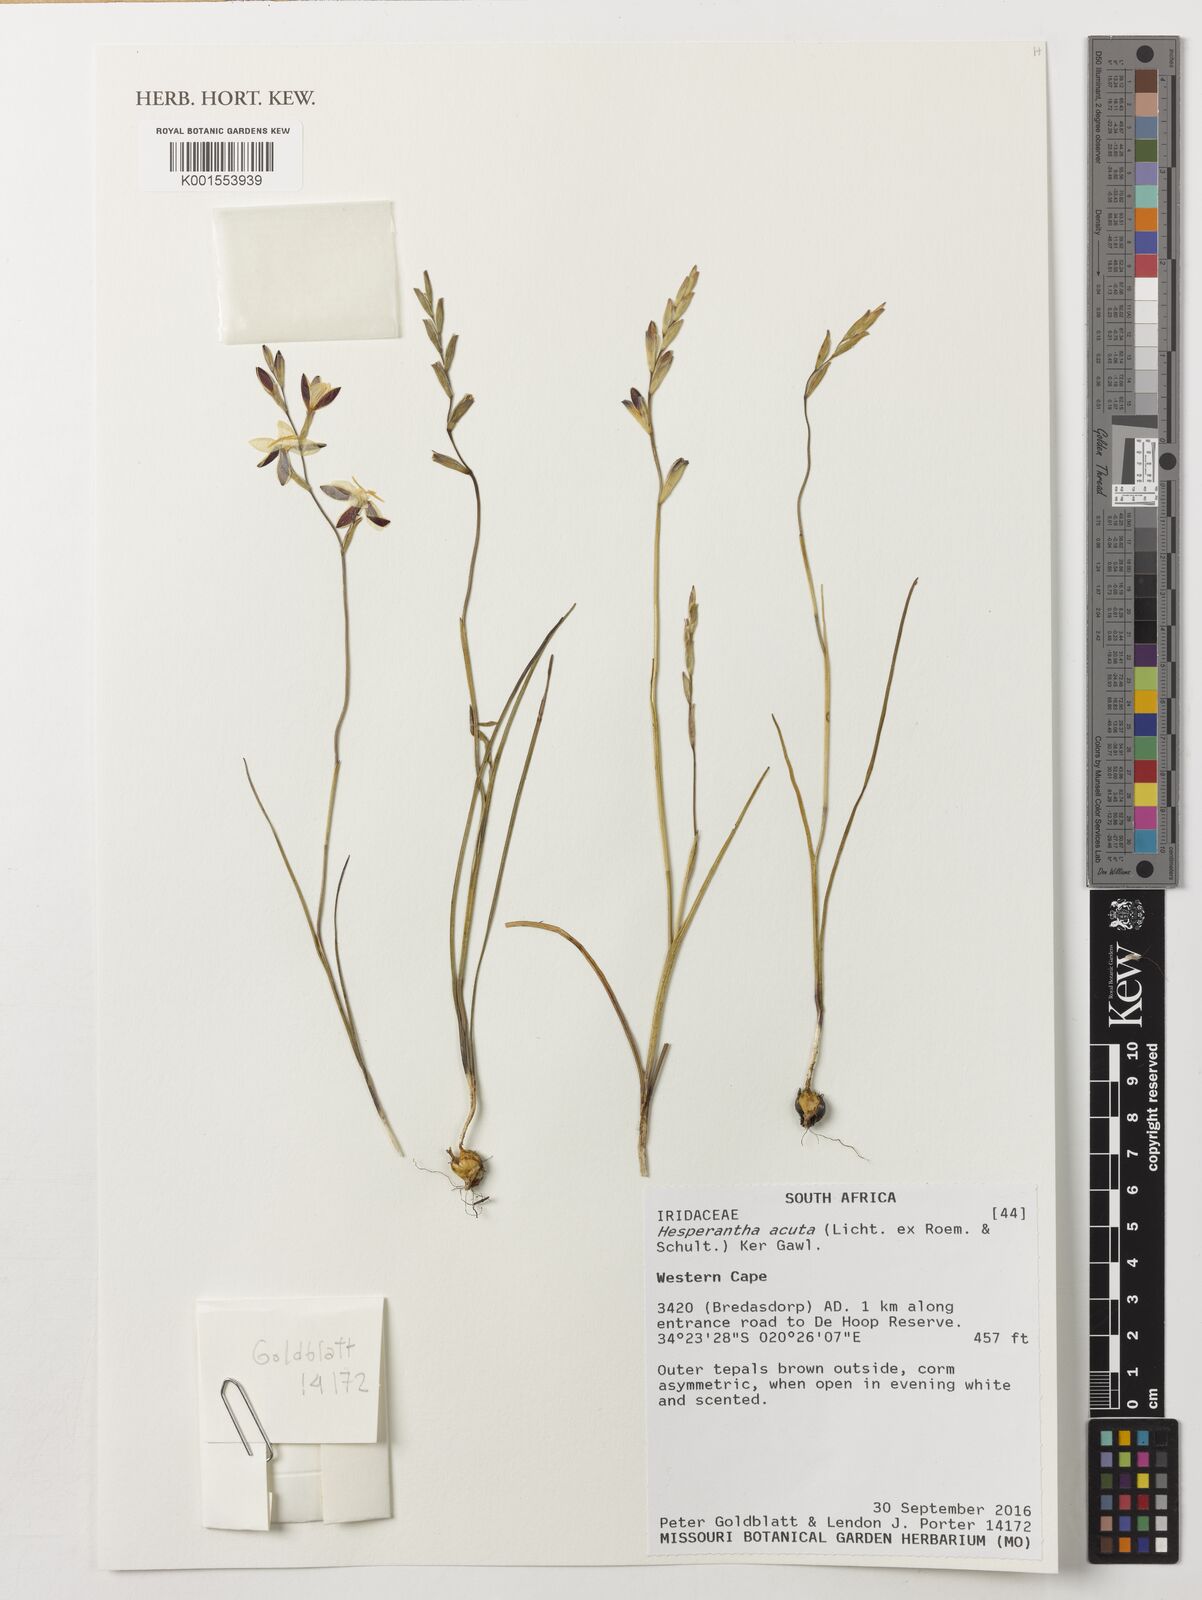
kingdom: Plantae
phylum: Tracheophyta
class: Liliopsida
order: Asparagales
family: Iridaceae
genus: Hesperantha
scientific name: Hesperantha acuta
